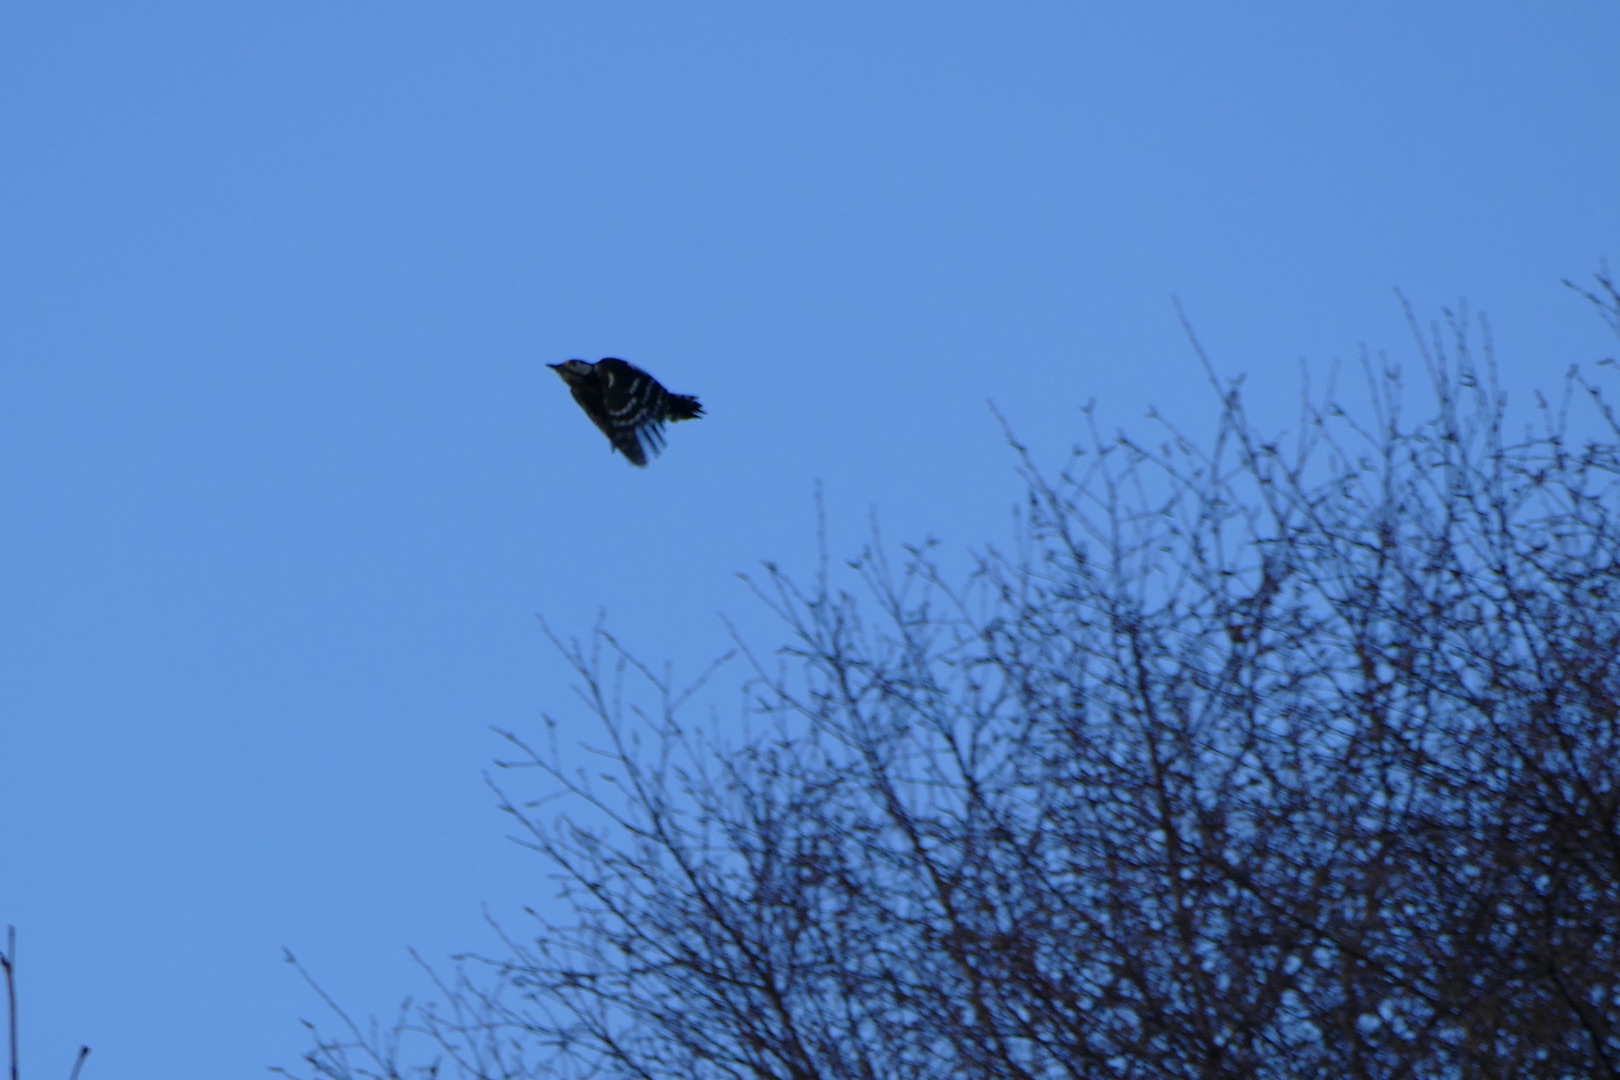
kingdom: Animalia
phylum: Chordata
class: Aves
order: Piciformes
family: Picidae
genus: Dendrocopos
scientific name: Dendrocopos major
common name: Stor flagspætte
